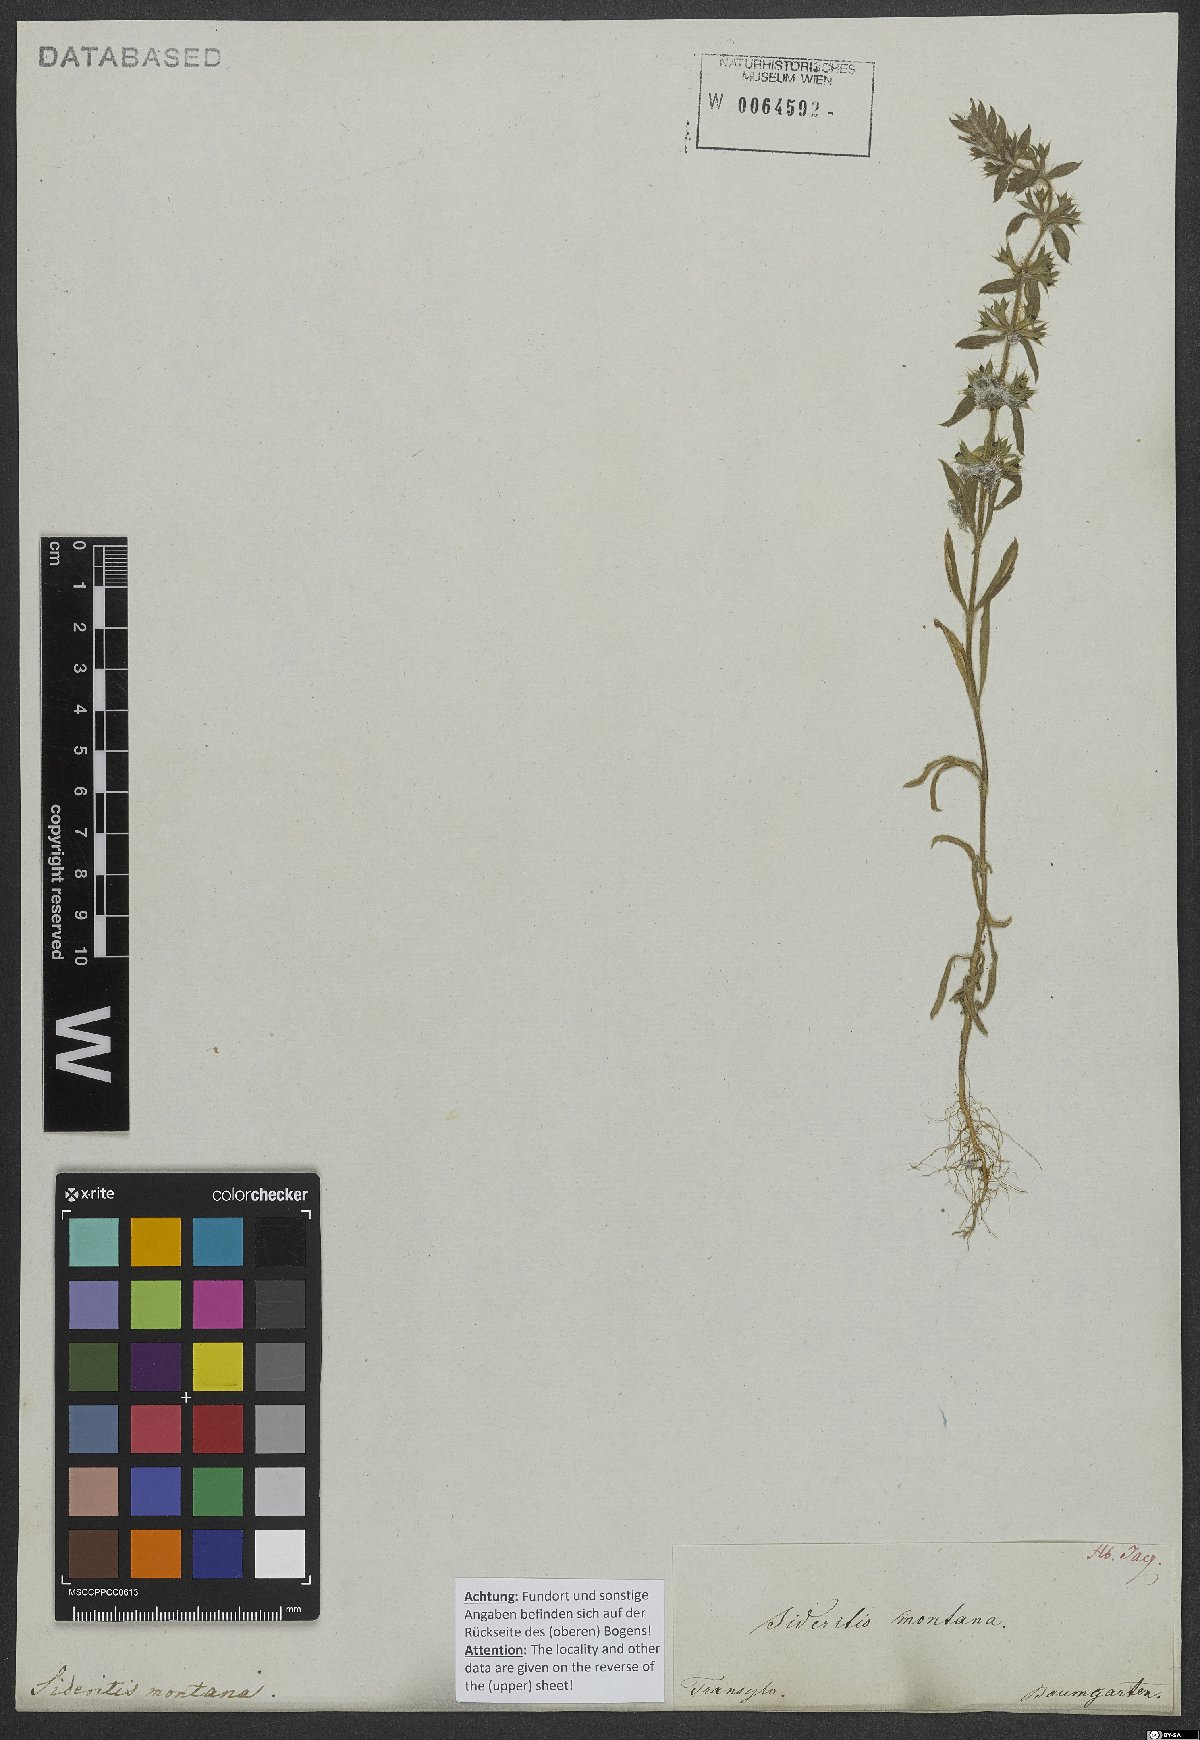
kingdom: Plantae
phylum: Tracheophyta
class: Magnoliopsida
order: Lamiales
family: Lamiaceae
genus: Sideritis
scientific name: Sideritis montana
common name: Mountain ironwort
